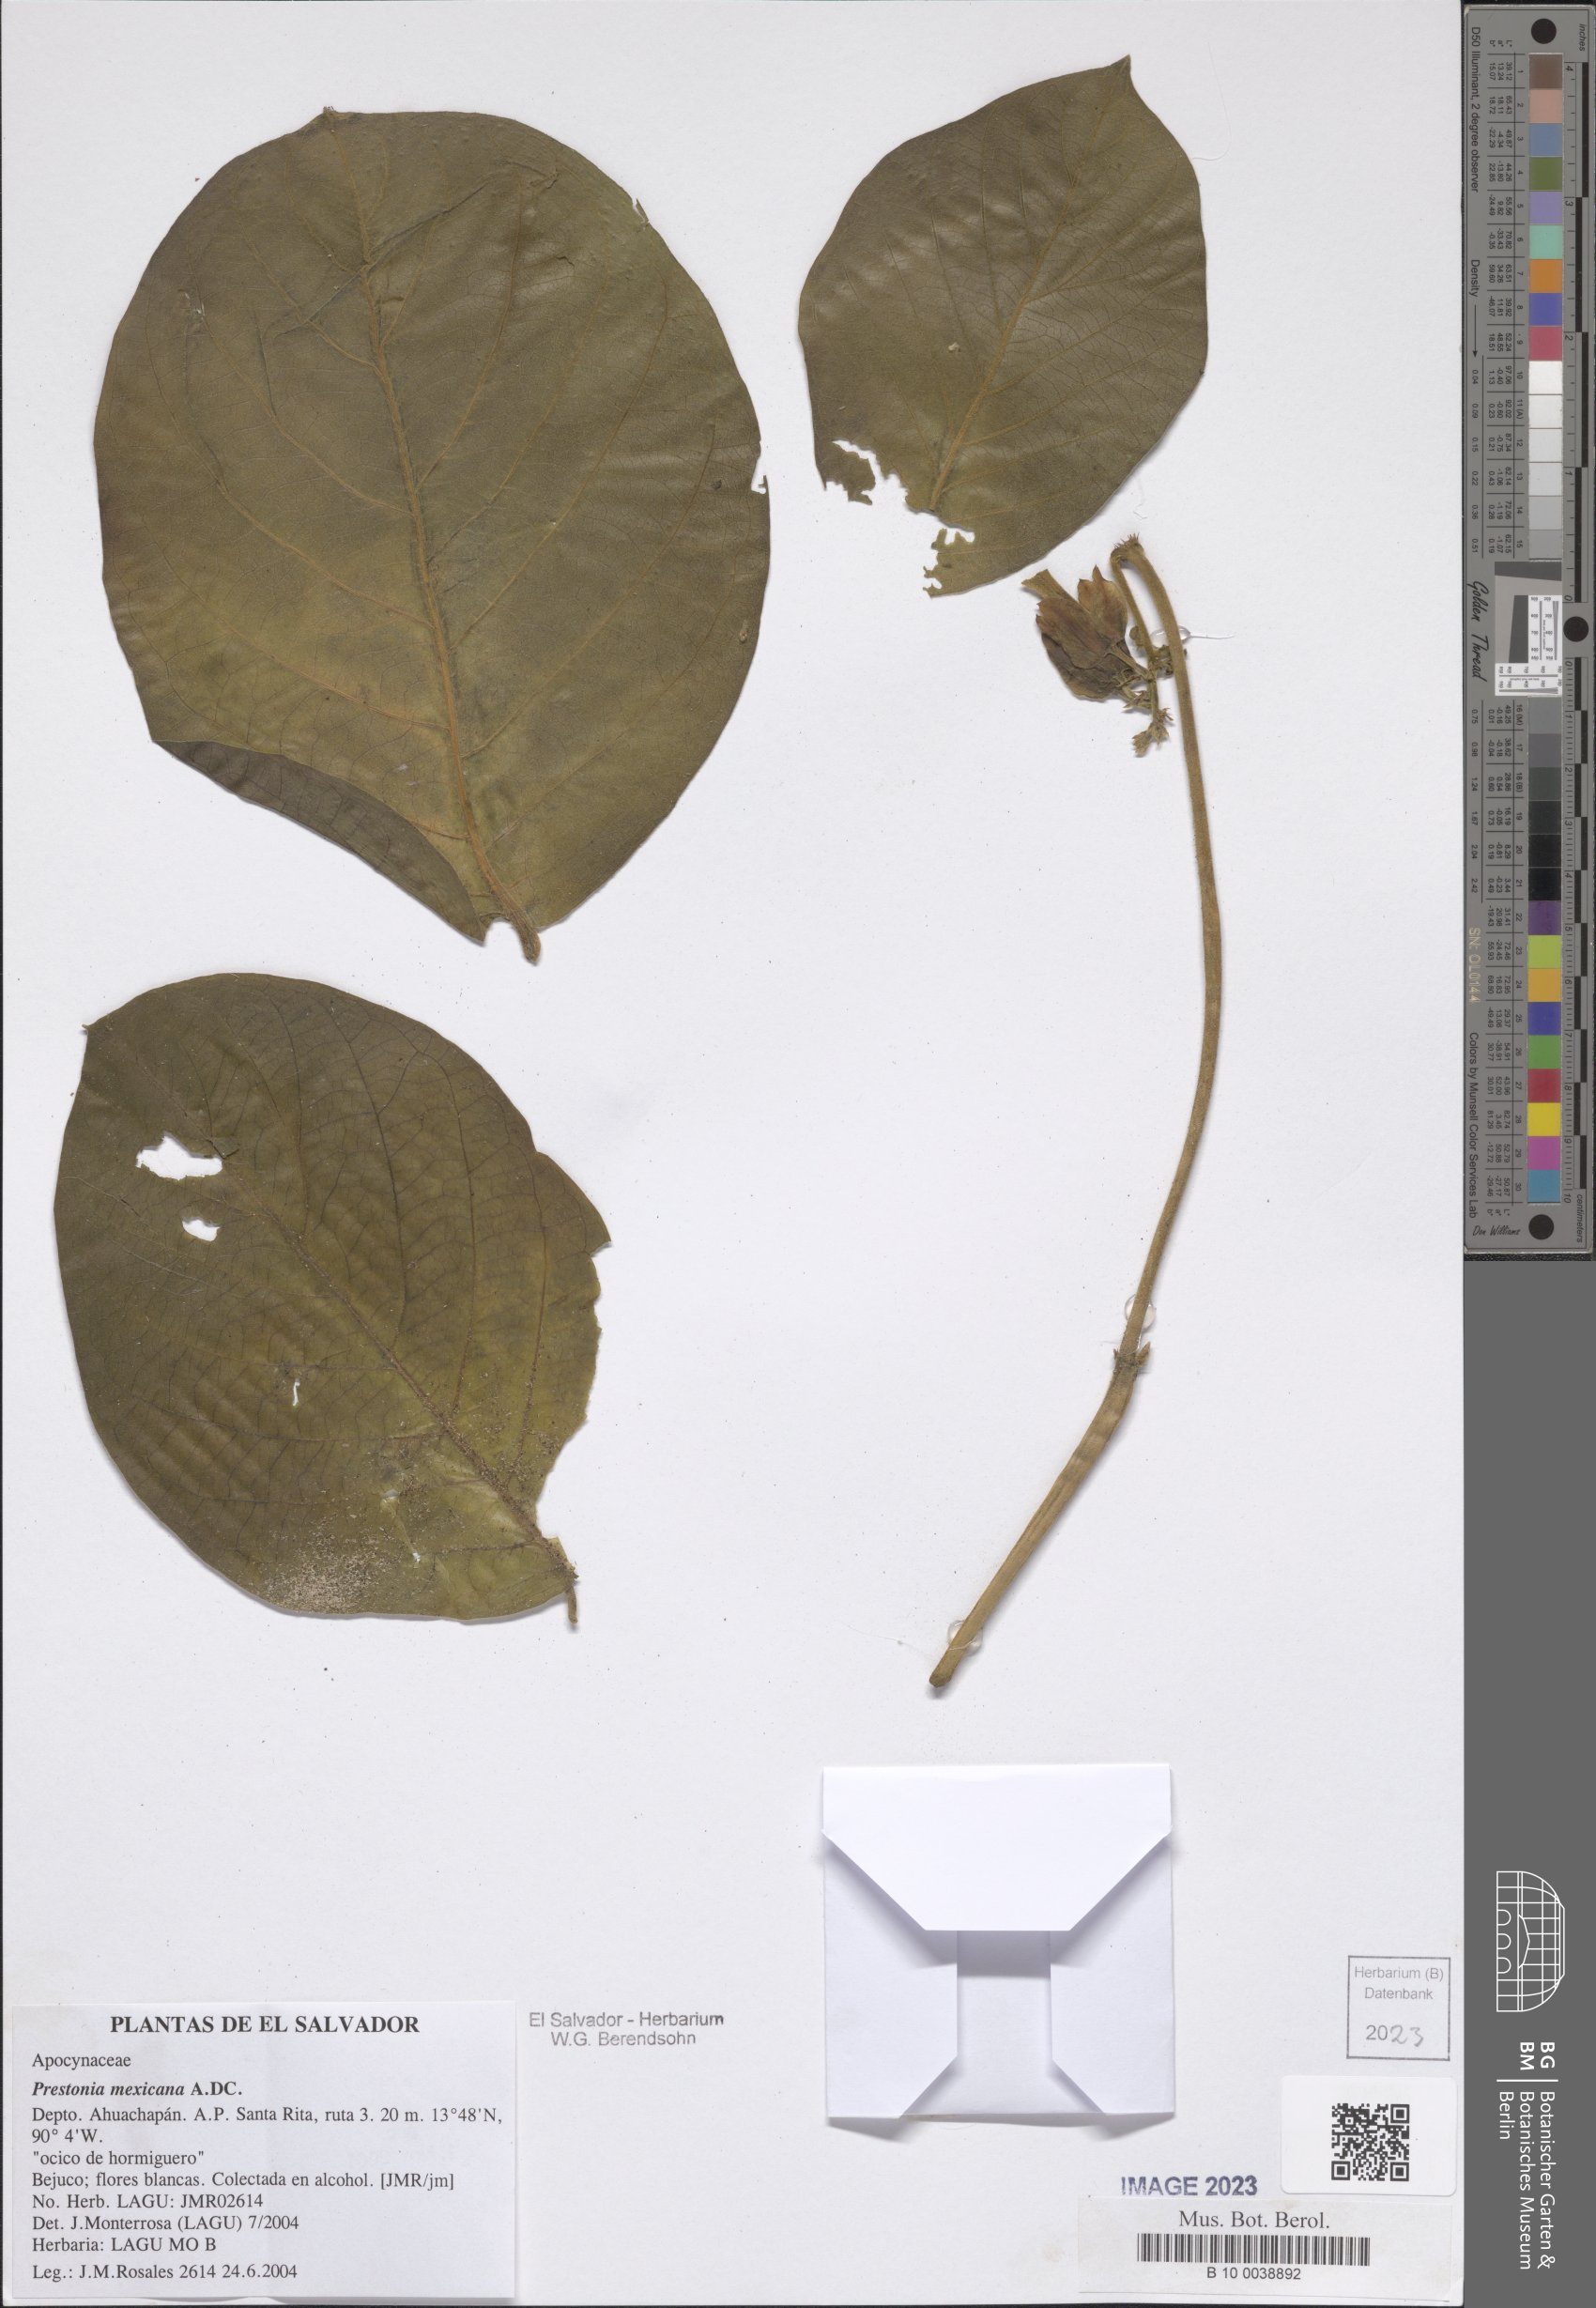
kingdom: Plantae
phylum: Tracheophyta
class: Magnoliopsida
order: Gentianales
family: Apocynaceae
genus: Prestonia
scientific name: Prestonia mexicana
